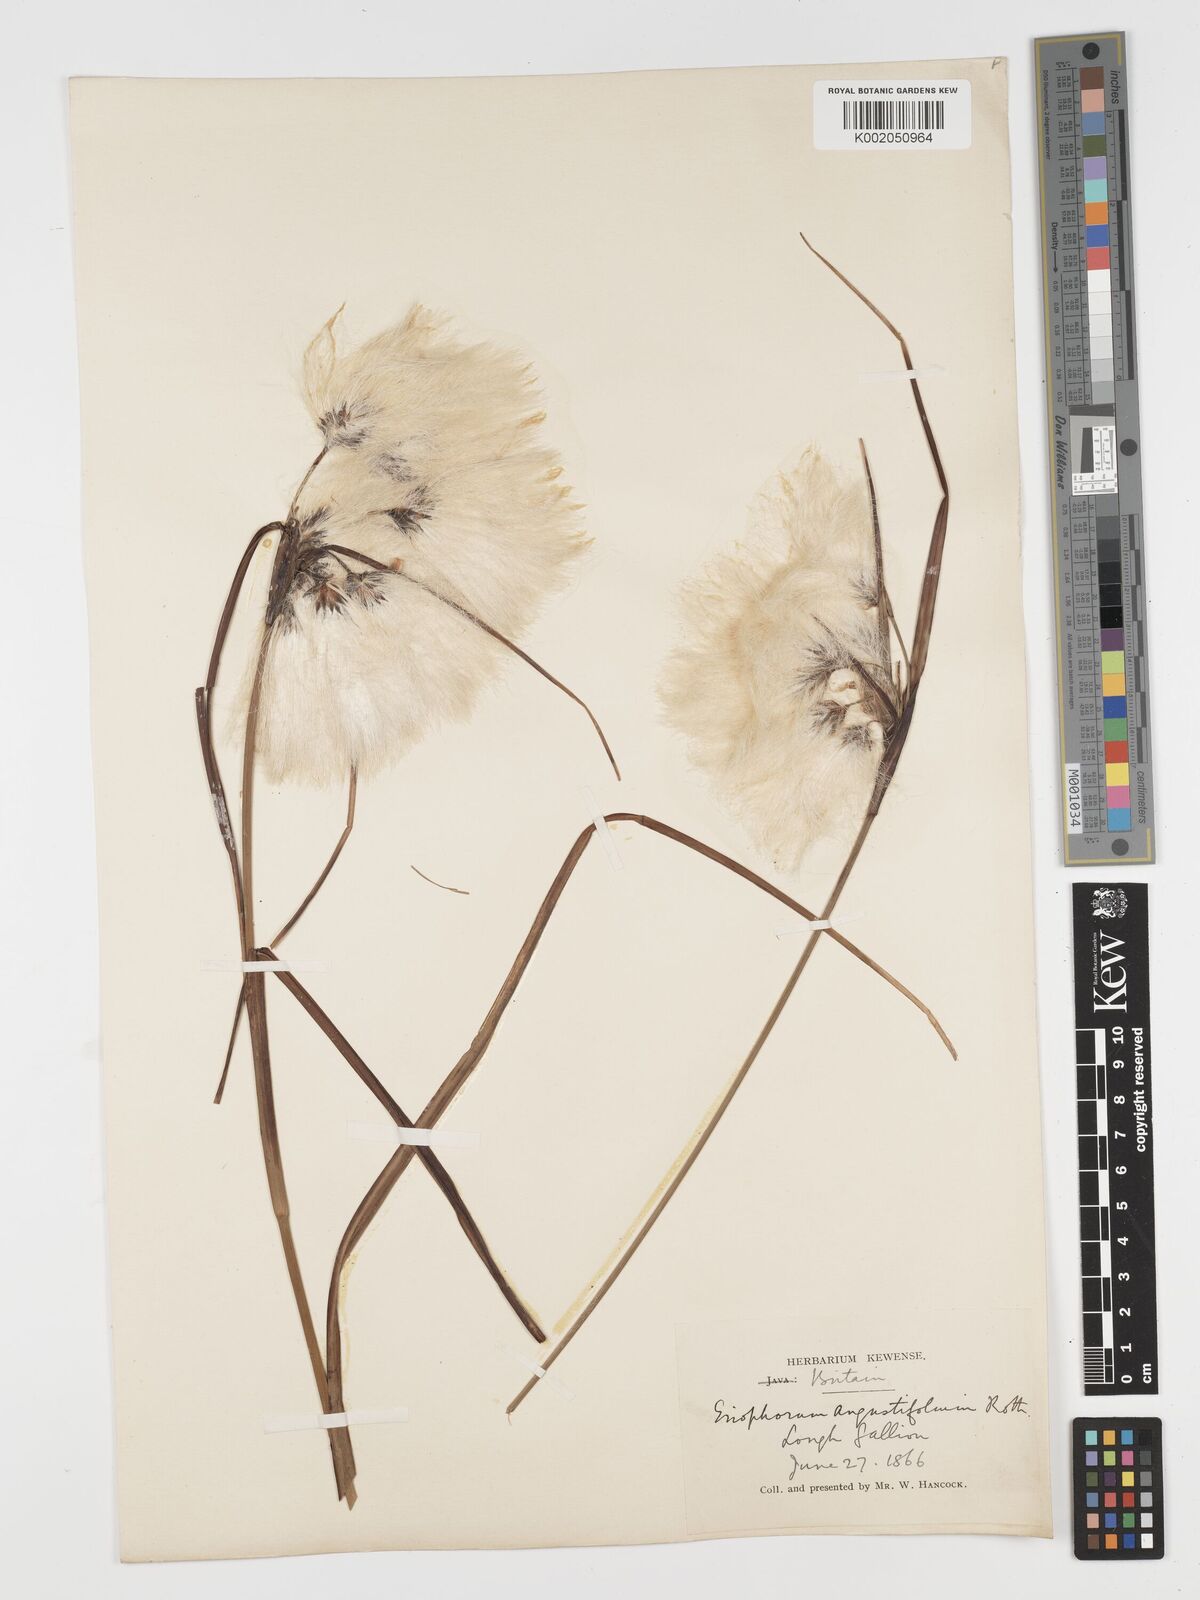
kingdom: Plantae
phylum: Tracheophyta
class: Liliopsida
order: Poales
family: Cyperaceae
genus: Eriophorum
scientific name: Eriophorum angustifolium
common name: Common cottongrass
